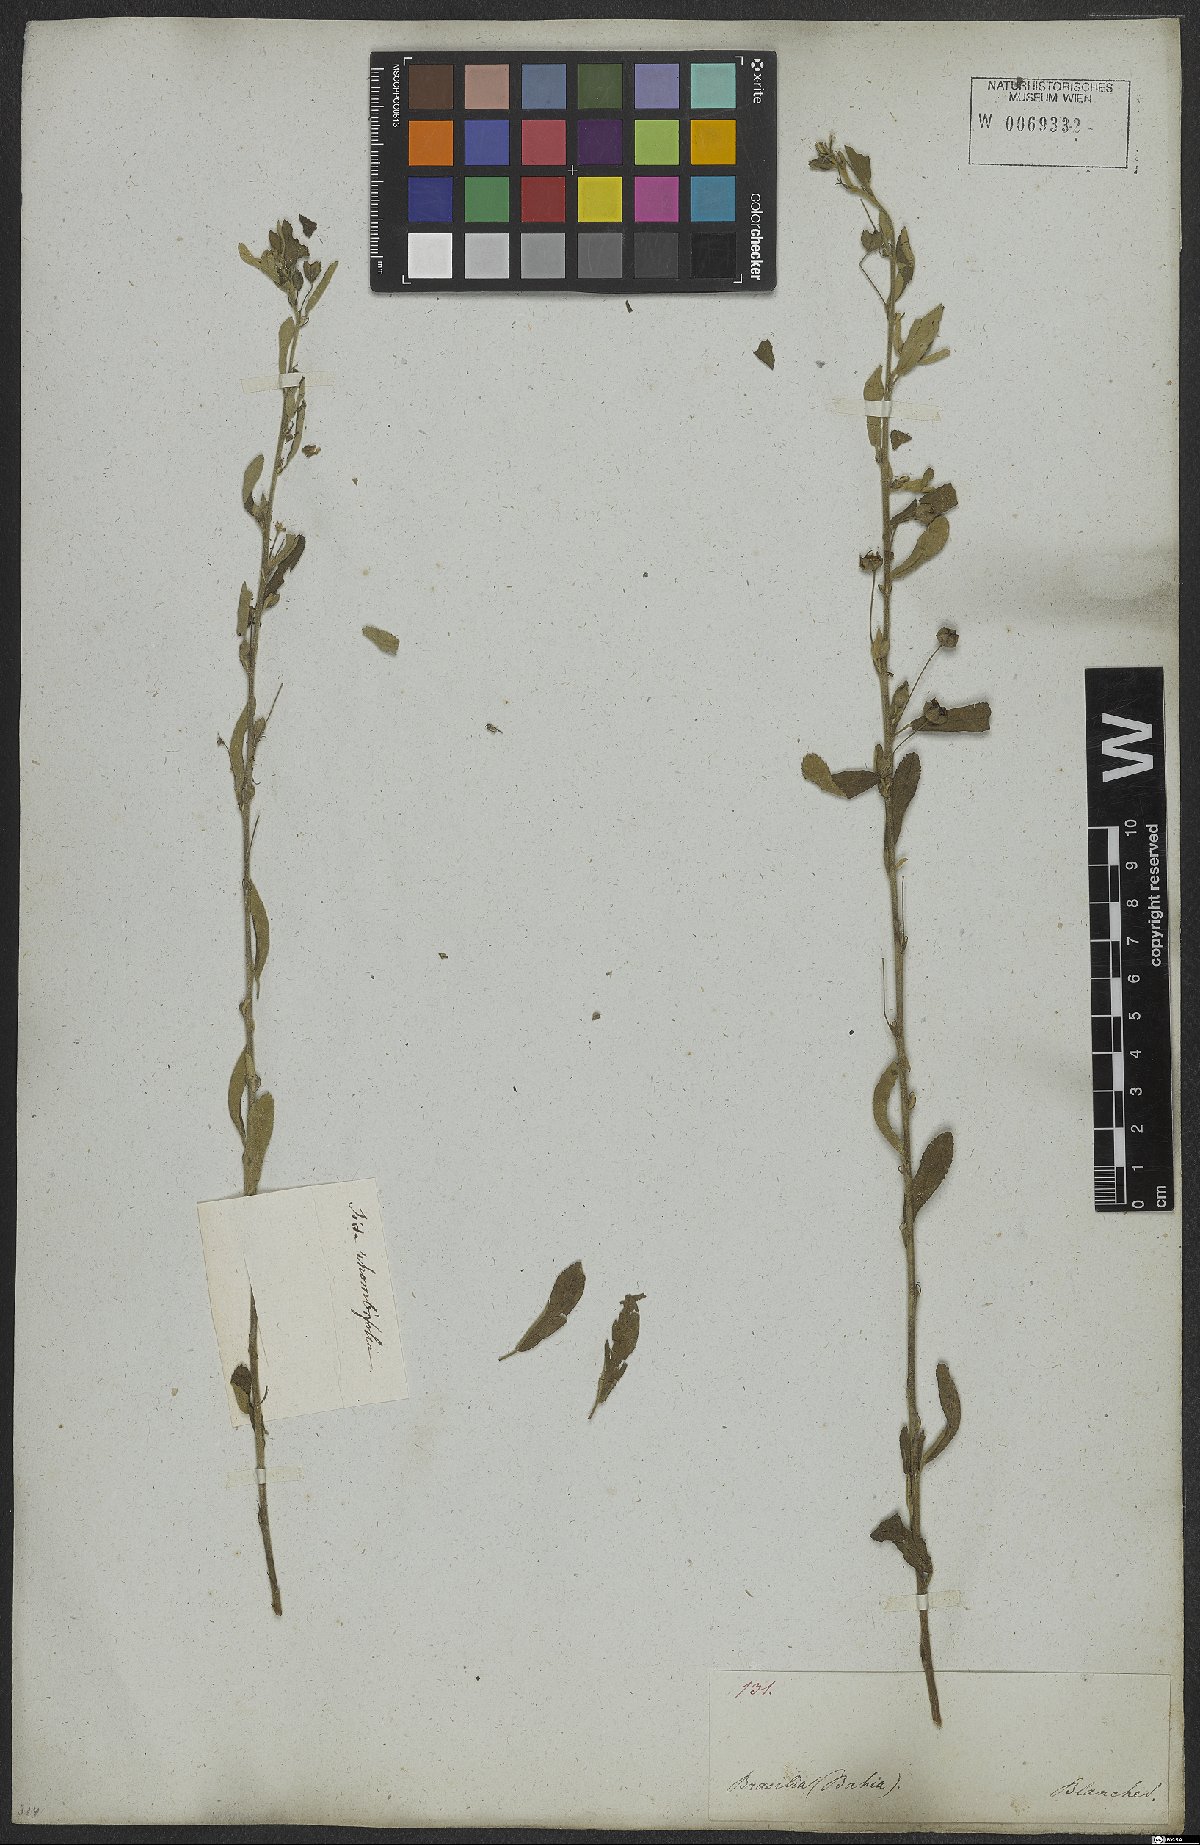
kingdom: Plantae
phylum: Tracheophyta
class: Magnoliopsida
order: Malvales
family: Malvaceae
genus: Sida
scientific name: Sida rhombifolia
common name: Queensland-hemp
